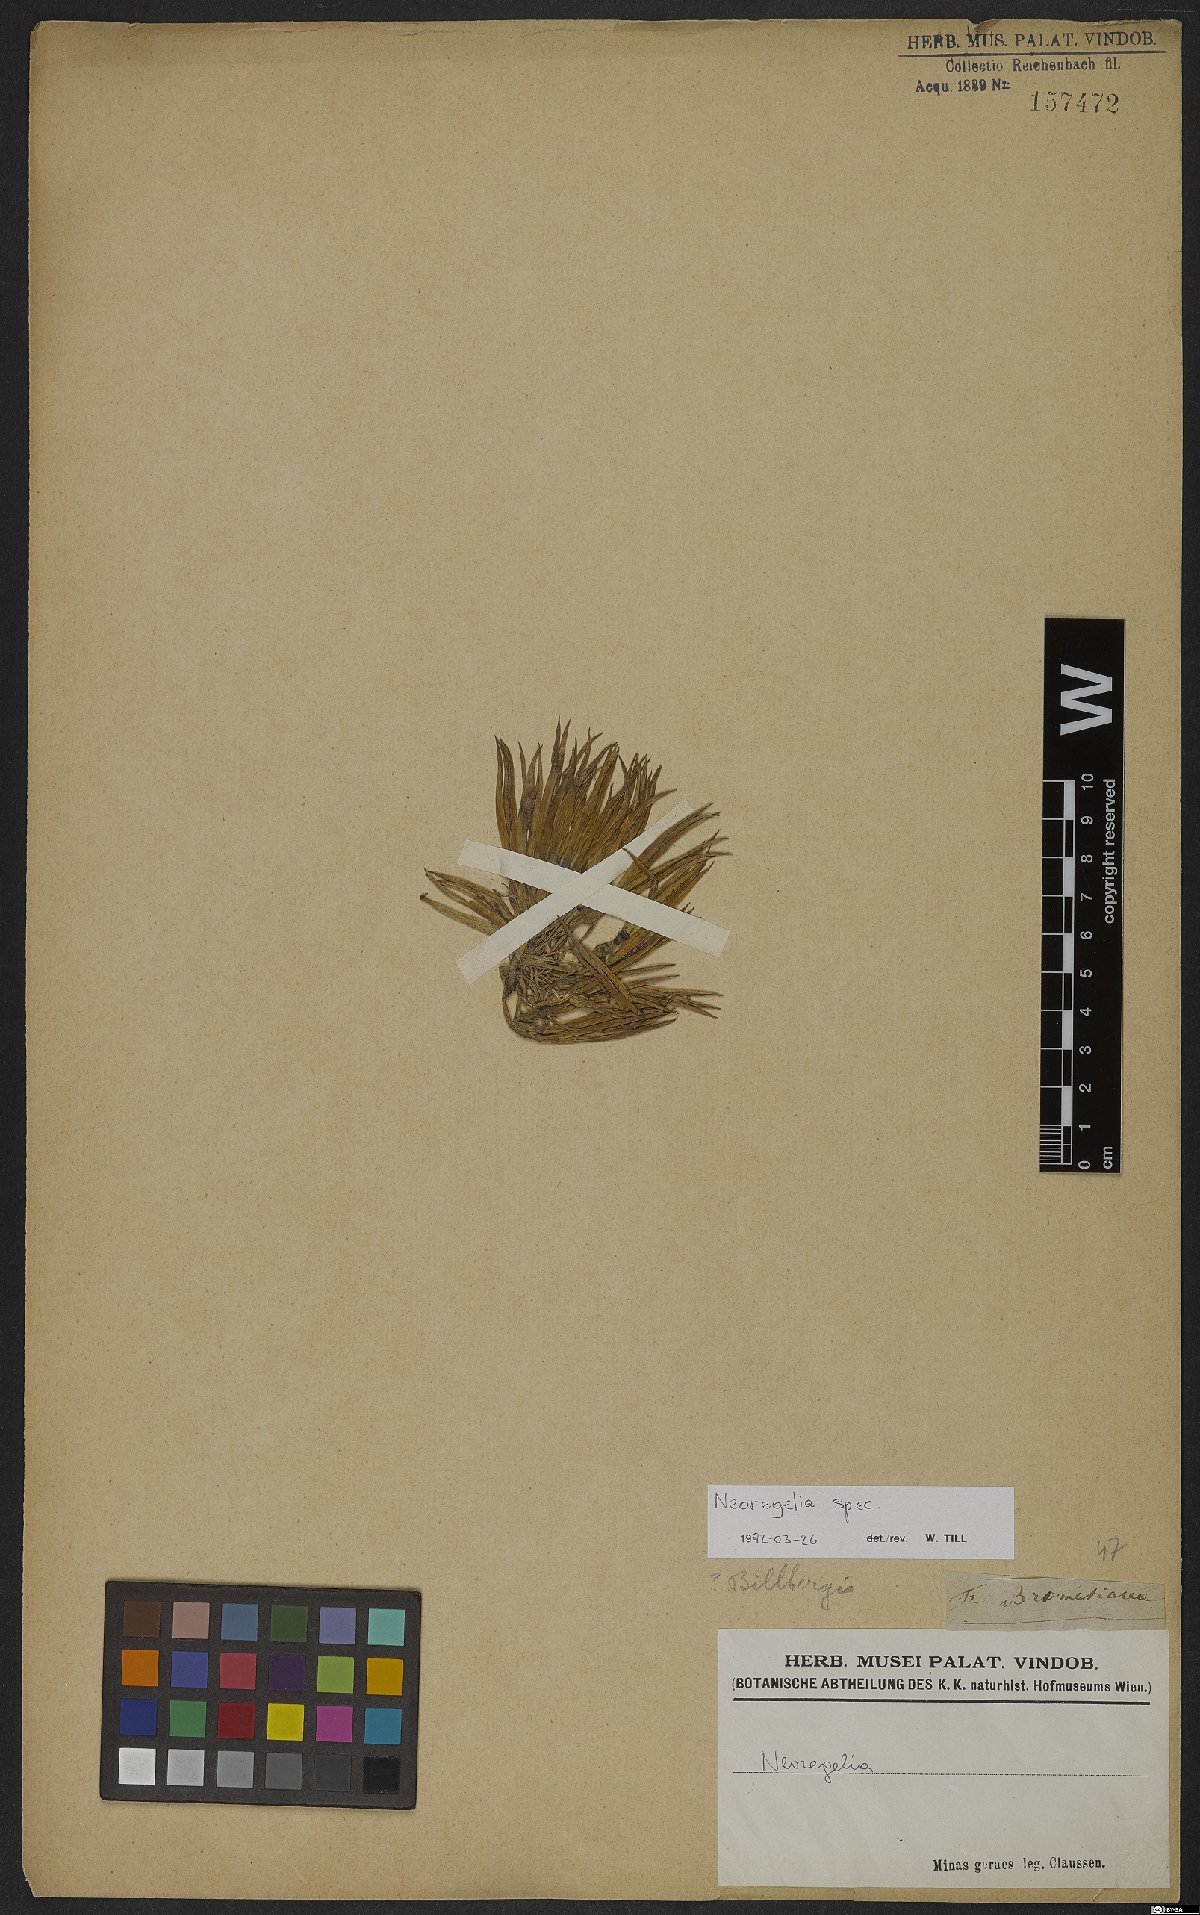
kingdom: Plantae
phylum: Tracheophyta
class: Liliopsida
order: Poales
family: Bromeliaceae
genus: Neoregelia
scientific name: Neoregelia
